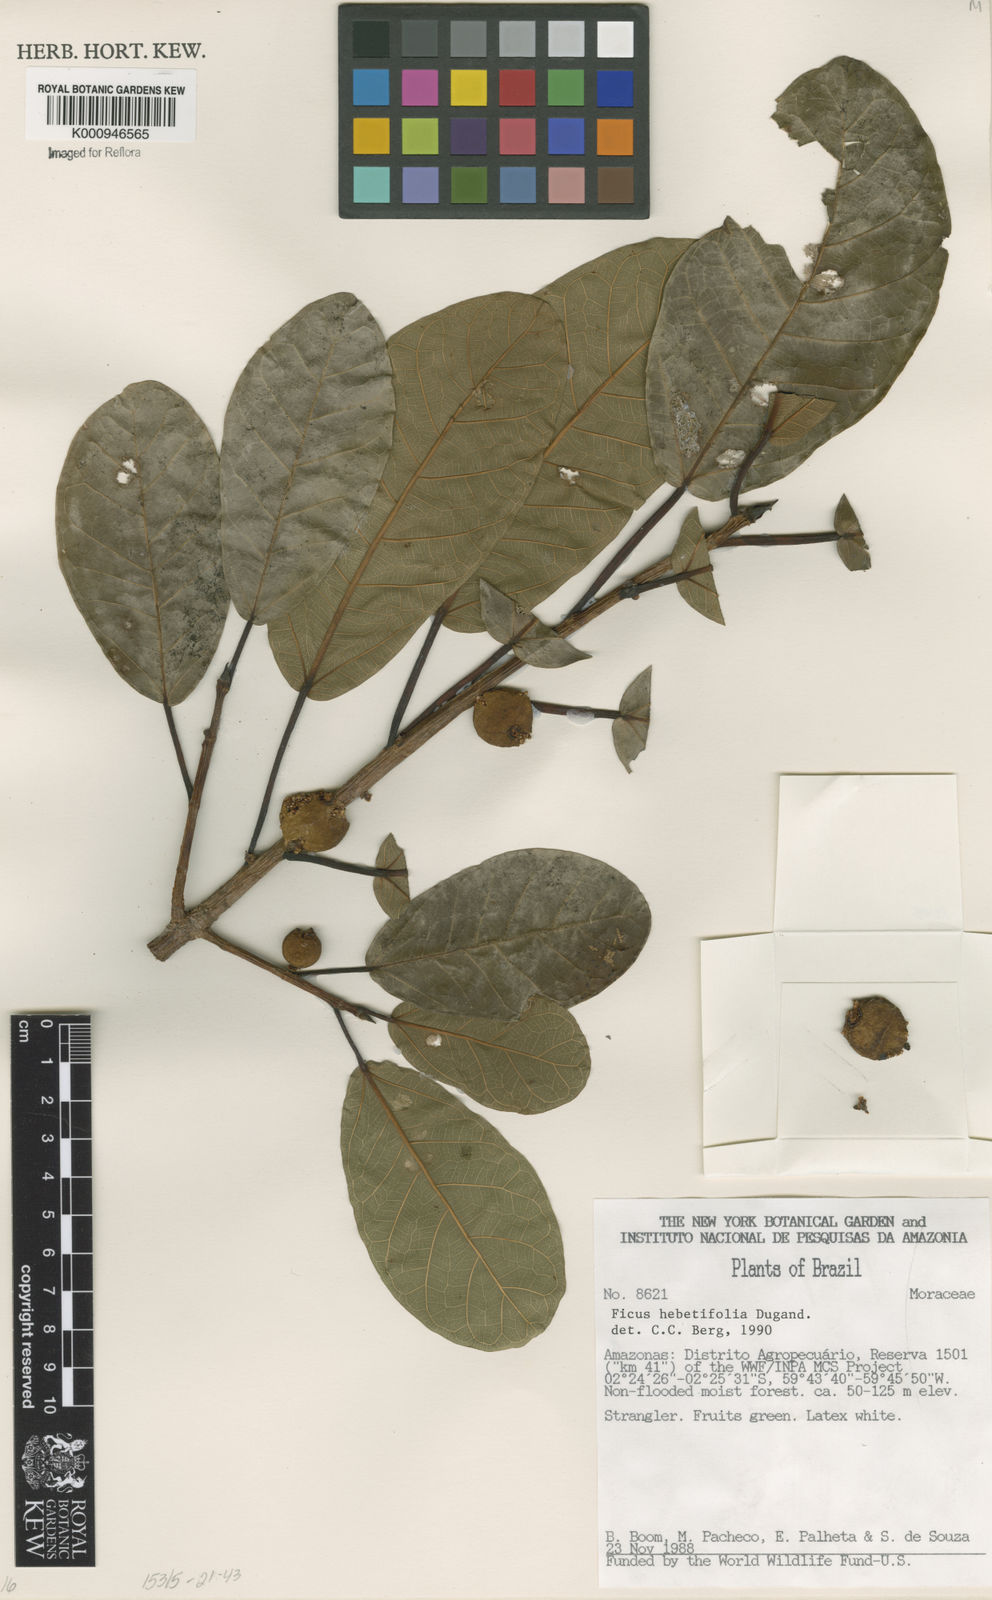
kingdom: Plantae
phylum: Tracheophyta
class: Magnoliopsida
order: Rosales
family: Moraceae
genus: Ficus
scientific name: Ficus paludica
